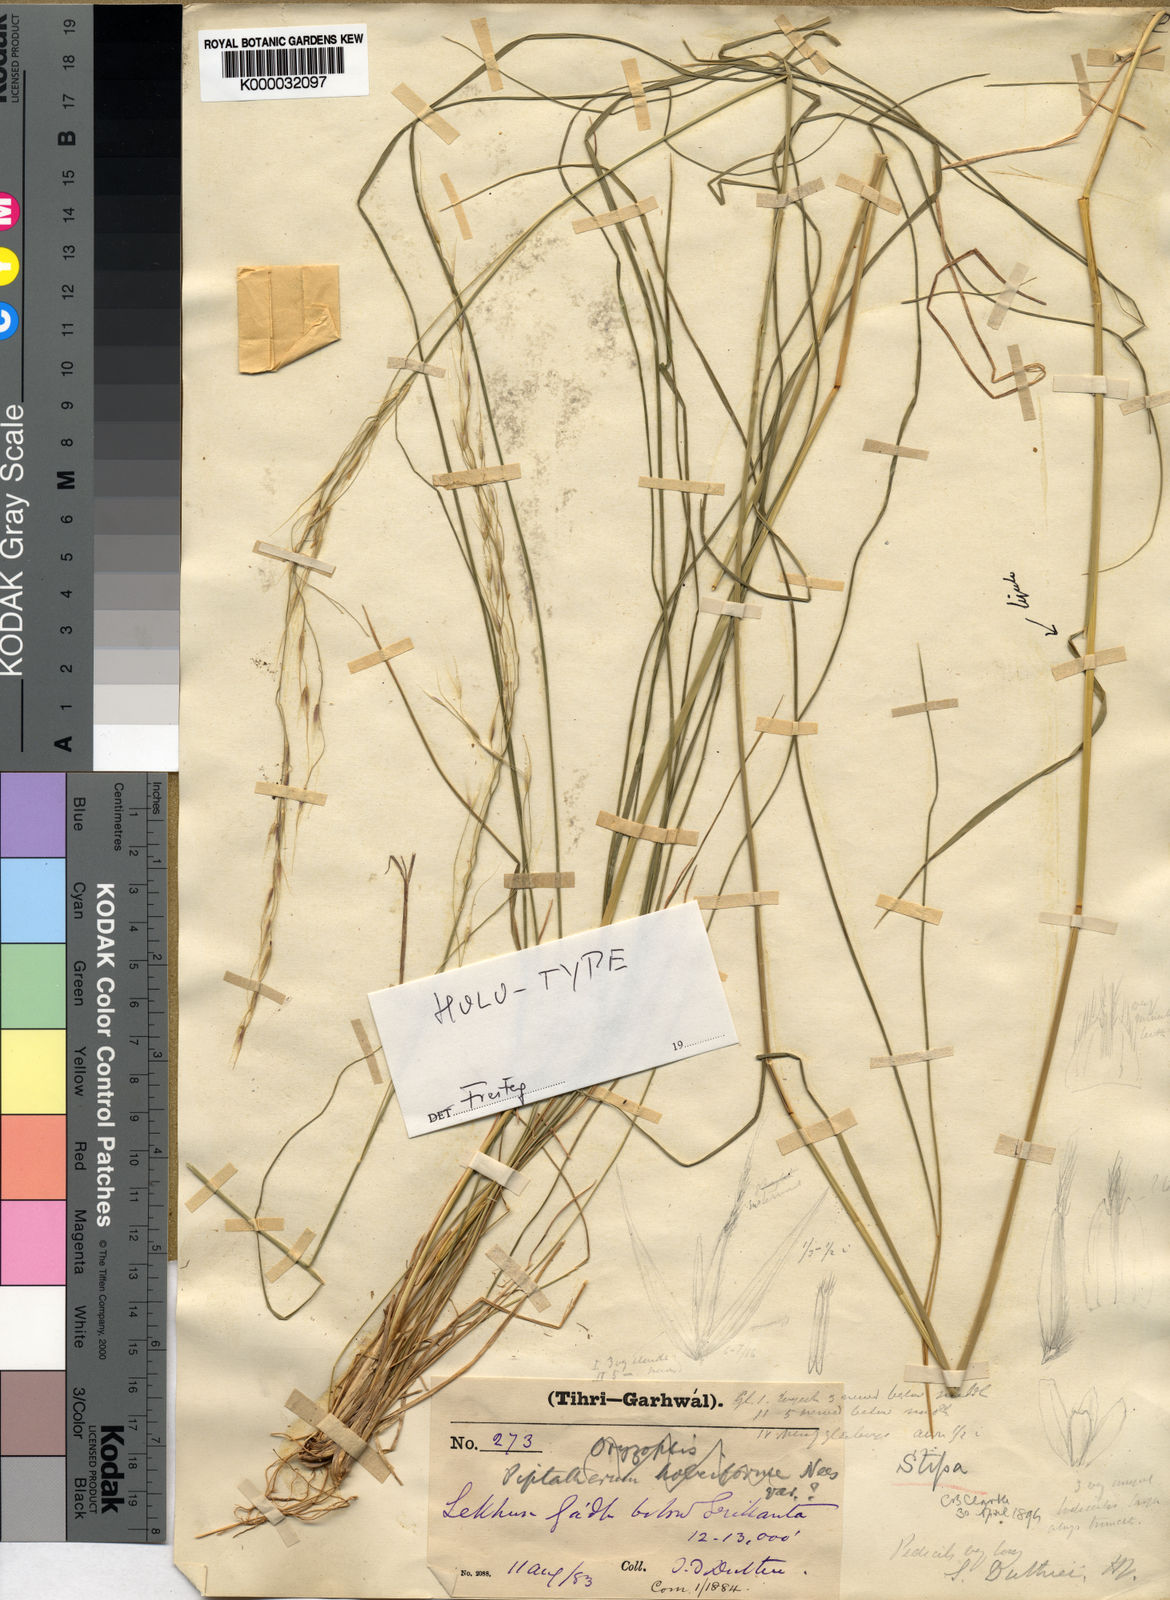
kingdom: Plantae
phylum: Tracheophyta
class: Liliopsida
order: Poales
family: Poaceae
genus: Ptilagrostis
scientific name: Ptilagrostis duthiei
